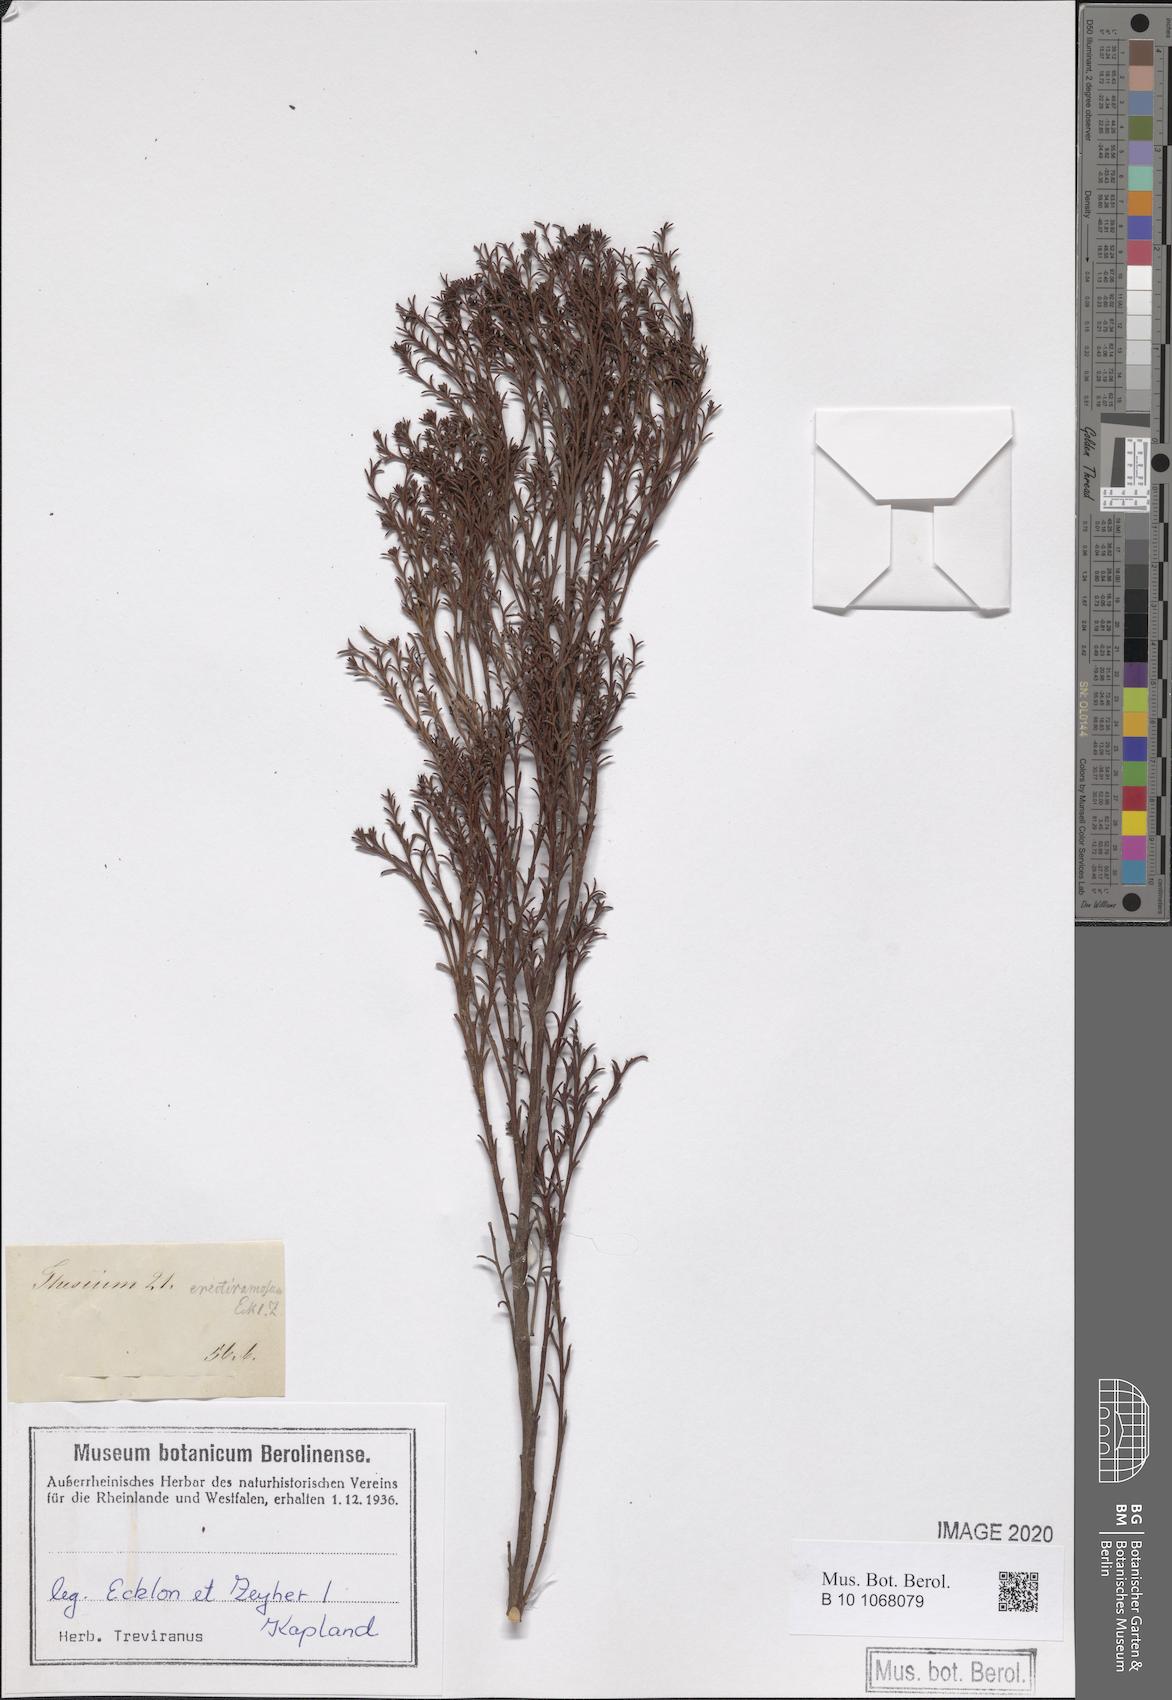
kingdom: Plantae
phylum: Tracheophyta
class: Magnoliopsida
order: Santalales
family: Thesiaceae
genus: Thesium
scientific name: Thesium quinqueflorum
